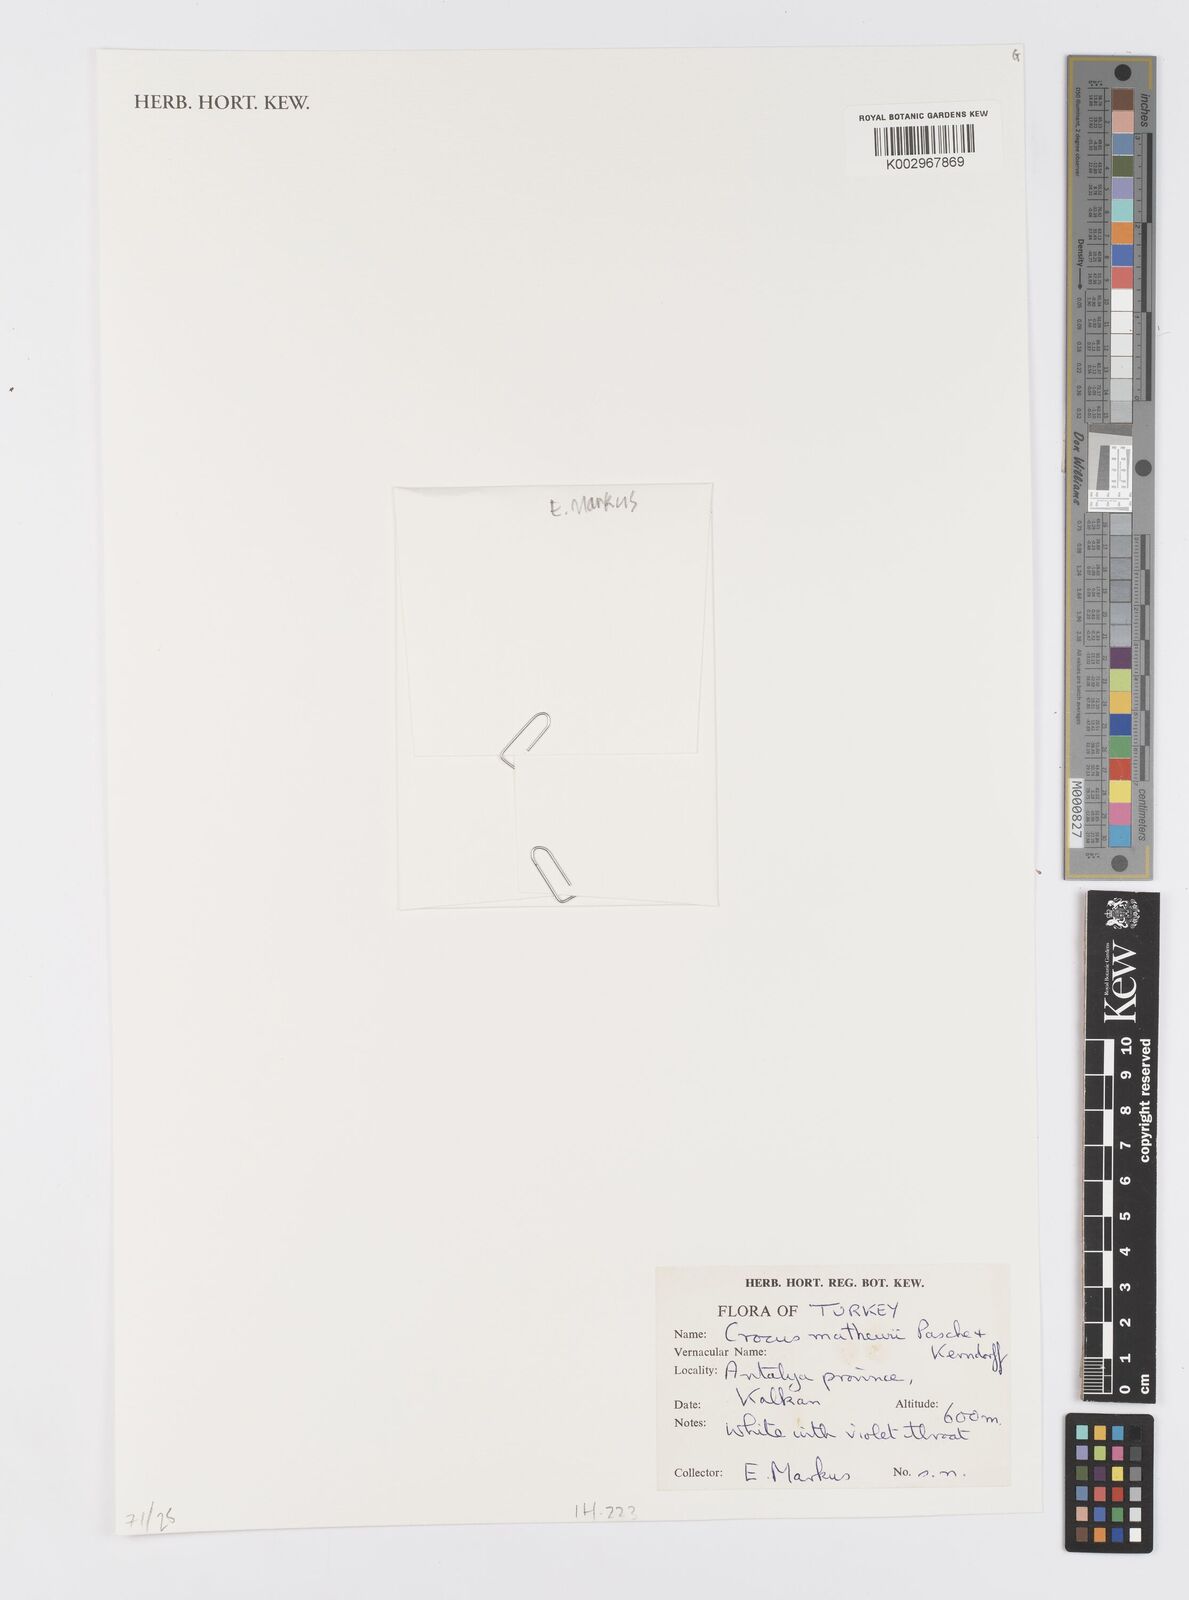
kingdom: Plantae
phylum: Tracheophyta
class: Liliopsida
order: Asparagales
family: Iridaceae
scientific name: Iridaceae
